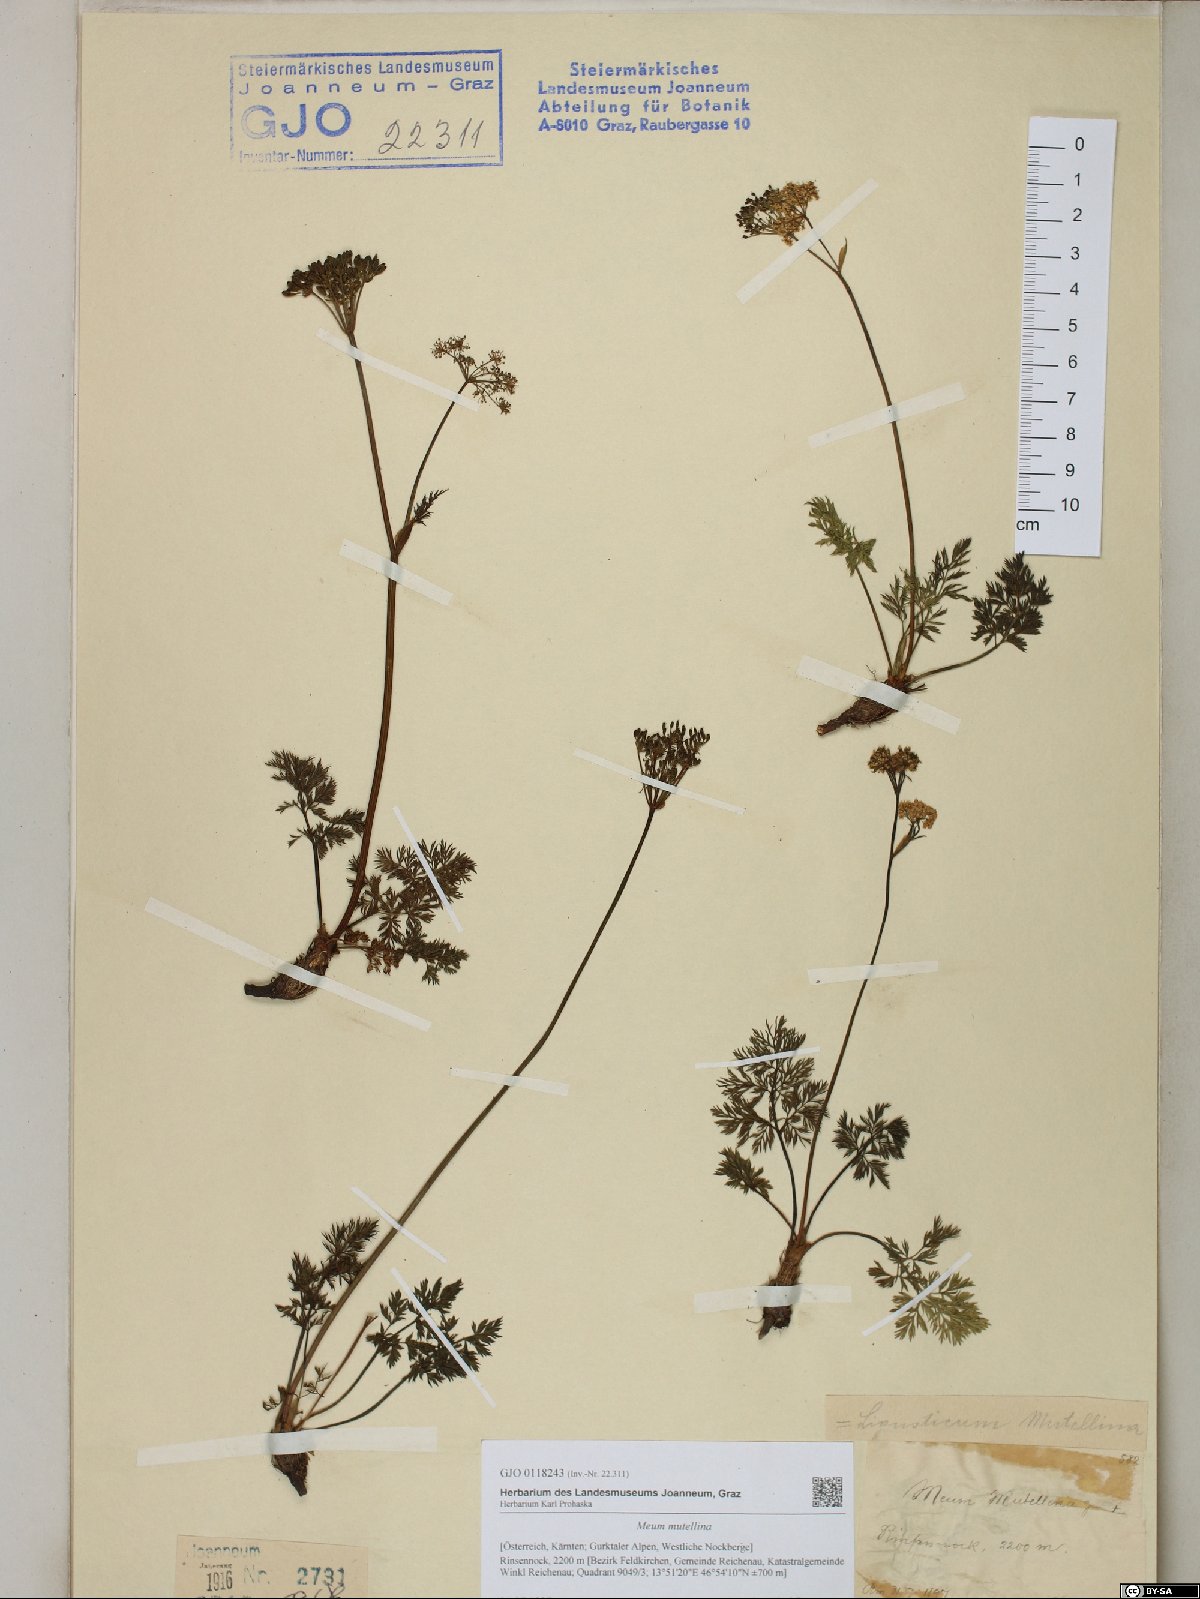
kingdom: Plantae
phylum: Tracheophyta
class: Magnoliopsida
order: Apiales
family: Apiaceae
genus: Mutellina
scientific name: Mutellina adonidifolia
